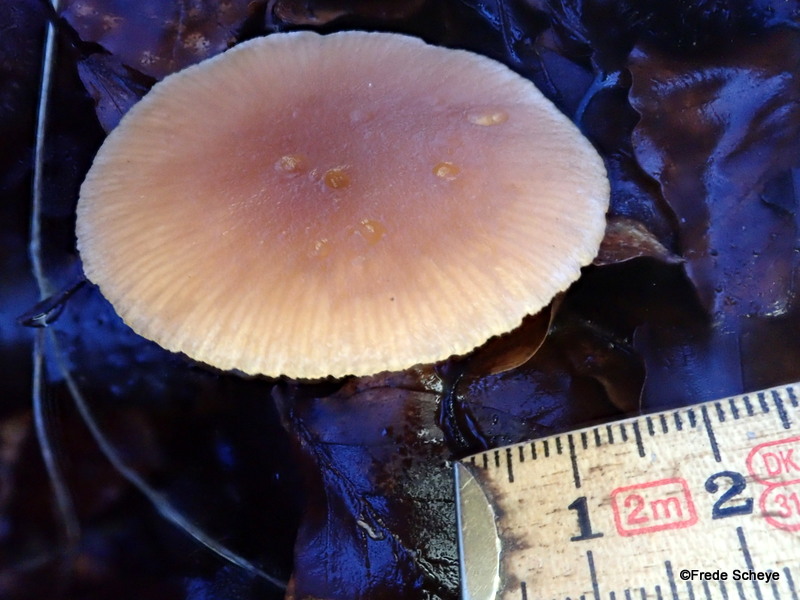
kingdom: Fungi
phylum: Basidiomycota
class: Agaricomycetes
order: Agaricales
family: Tubariaceae
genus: Tubaria
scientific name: Tubaria furfuracea
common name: kliddet fnughat
